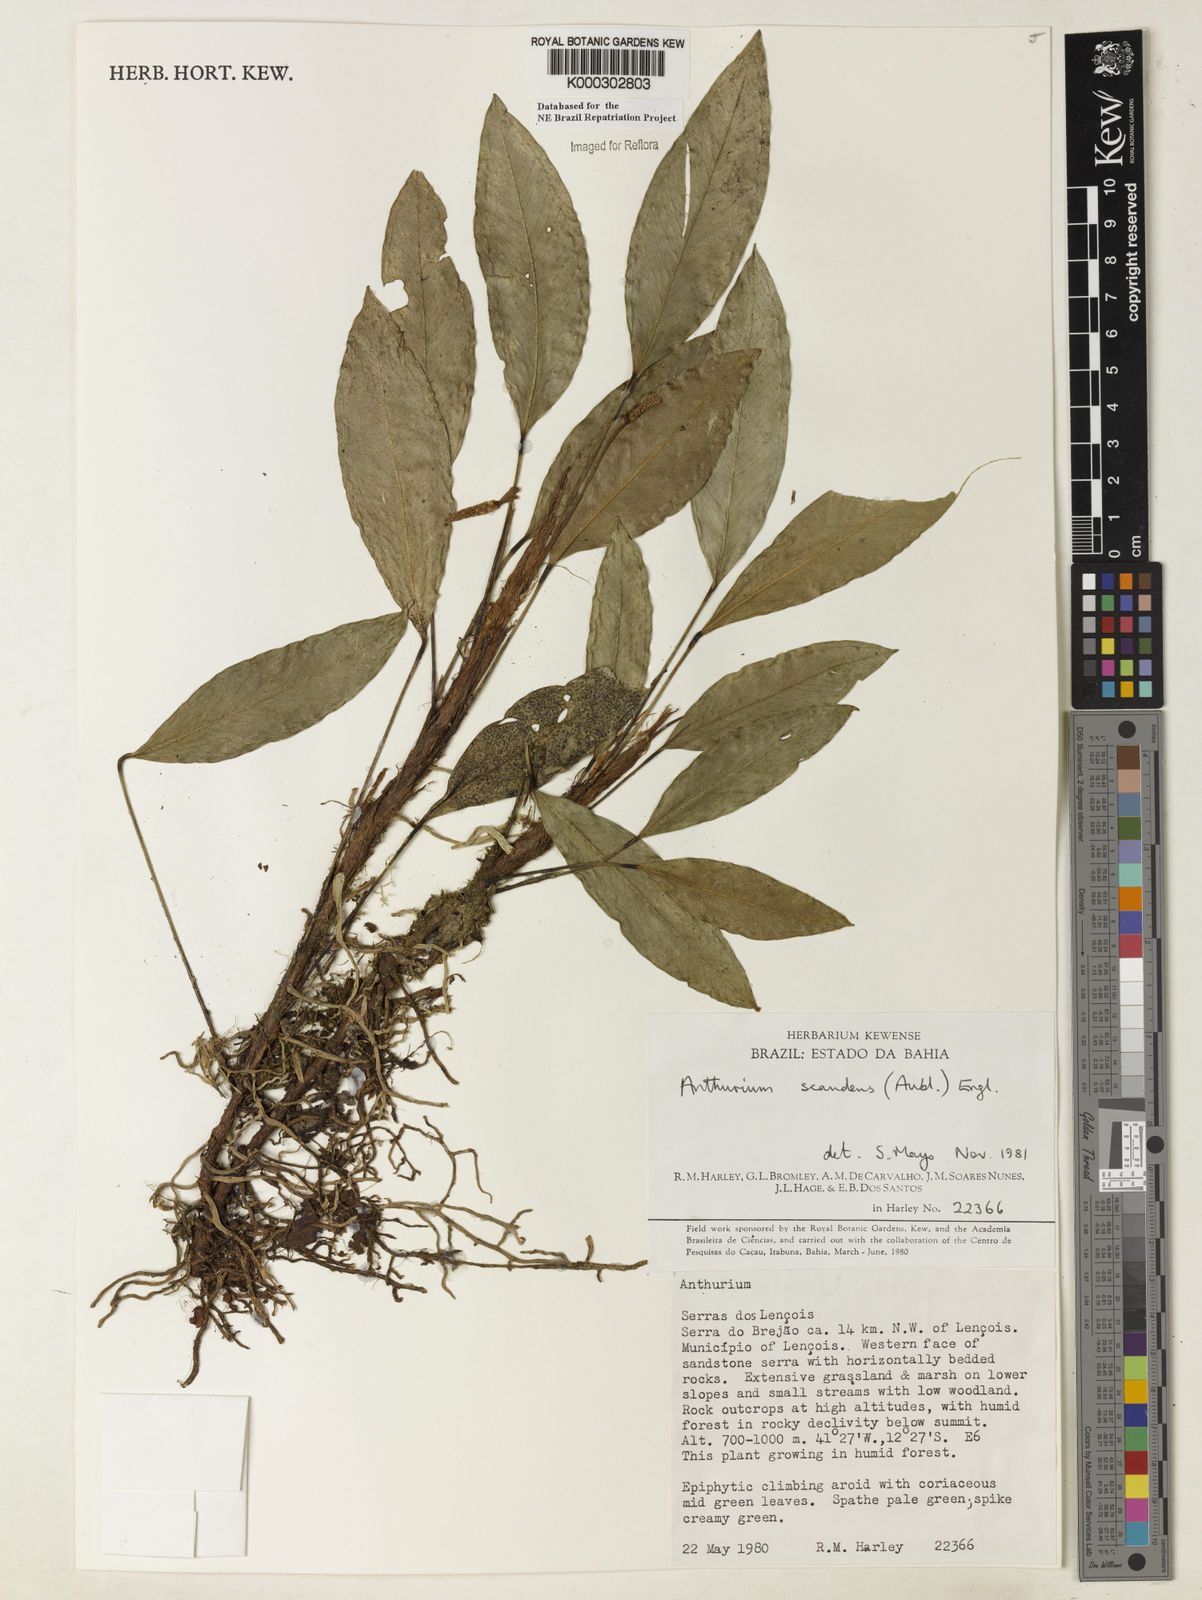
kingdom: Plantae
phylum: Tracheophyta
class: Liliopsida
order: Alismatales
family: Araceae
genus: Anthurium
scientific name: Anthurium scandens
